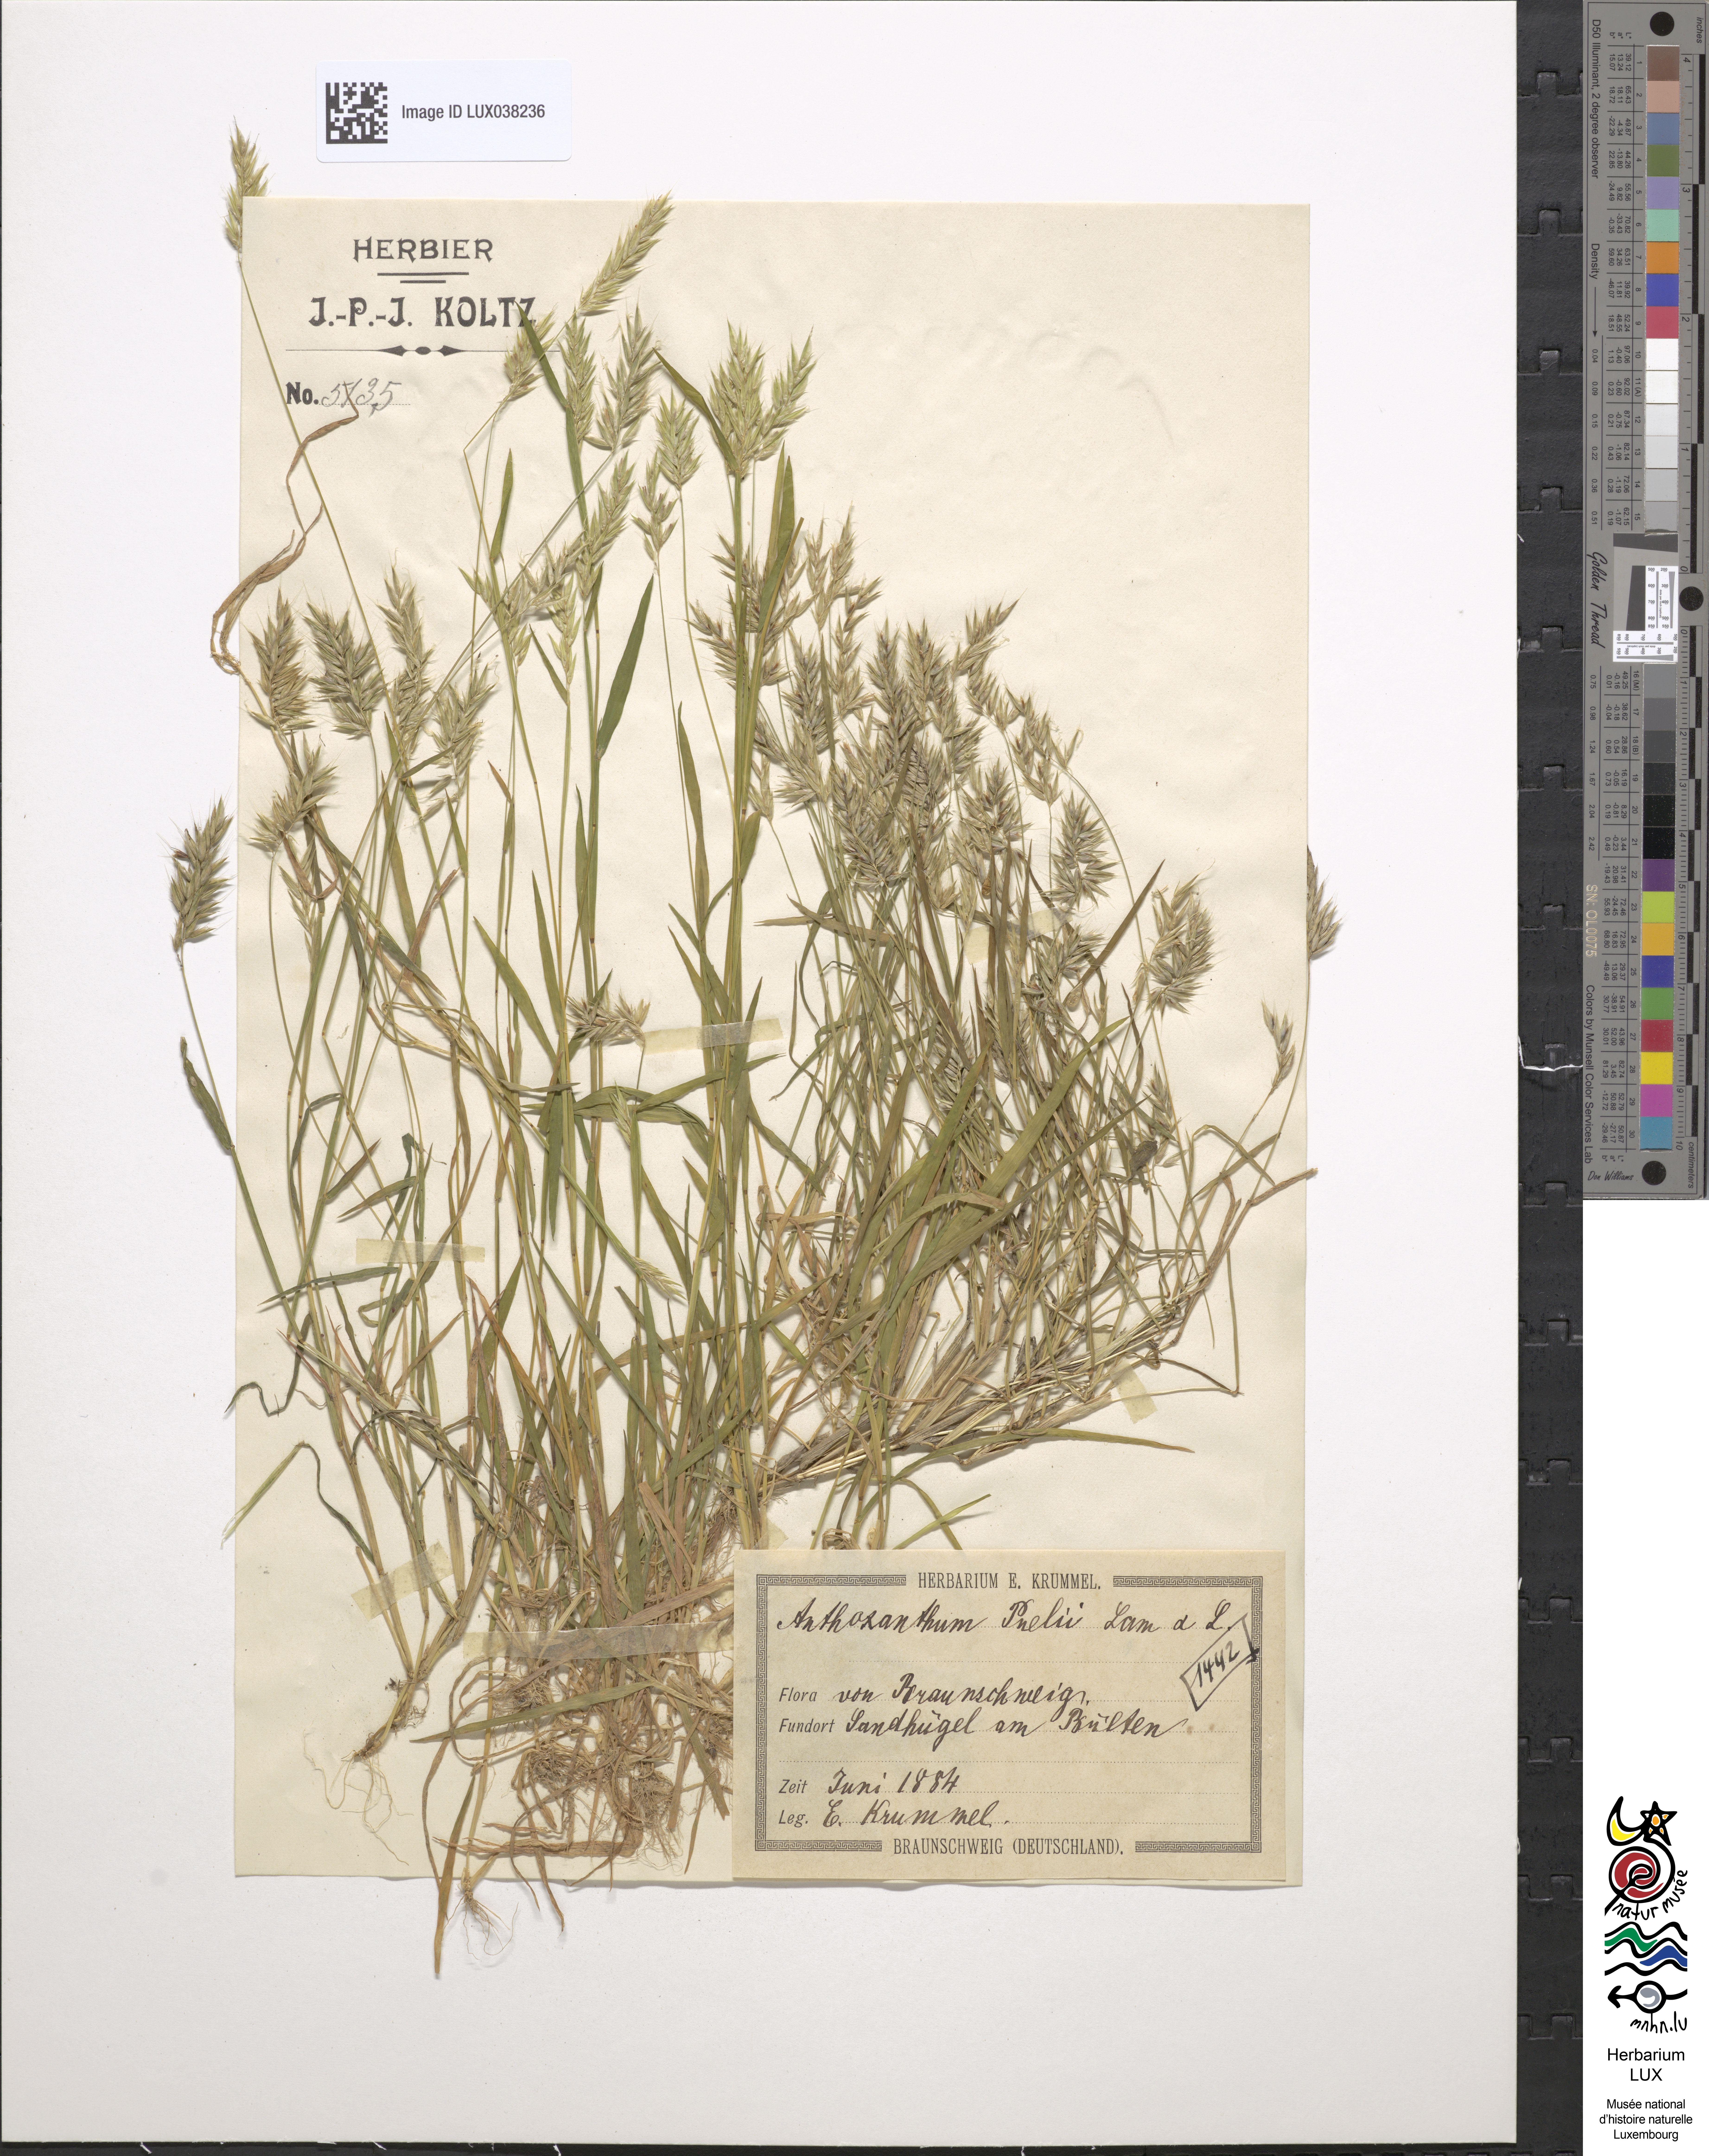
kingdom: Plantae
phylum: Tracheophyta
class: Liliopsida
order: Poales
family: Poaceae
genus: Anthoxanthum
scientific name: Anthoxanthum aristatum
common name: Annual vernal-grass
